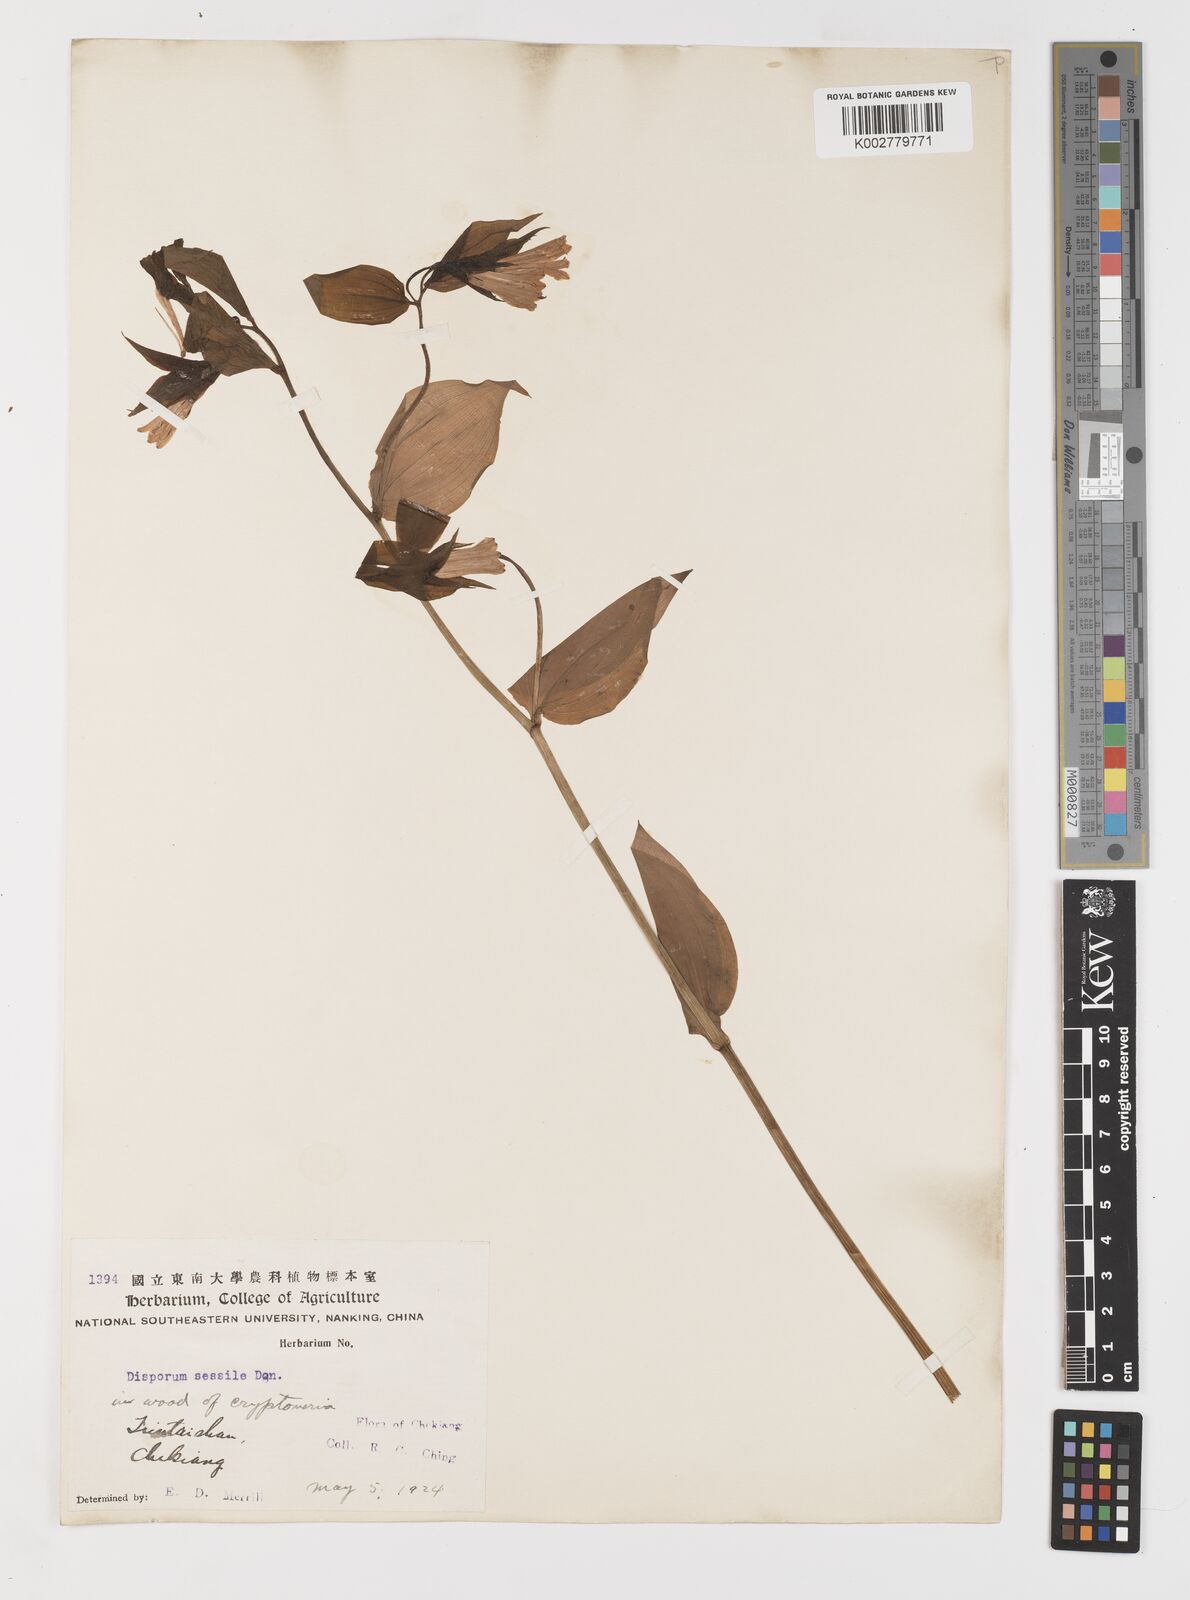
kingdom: Plantae
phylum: Tracheophyta
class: Liliopsida
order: Liliales
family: Colchicaceae
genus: Disporum
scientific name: Disporum sessile
